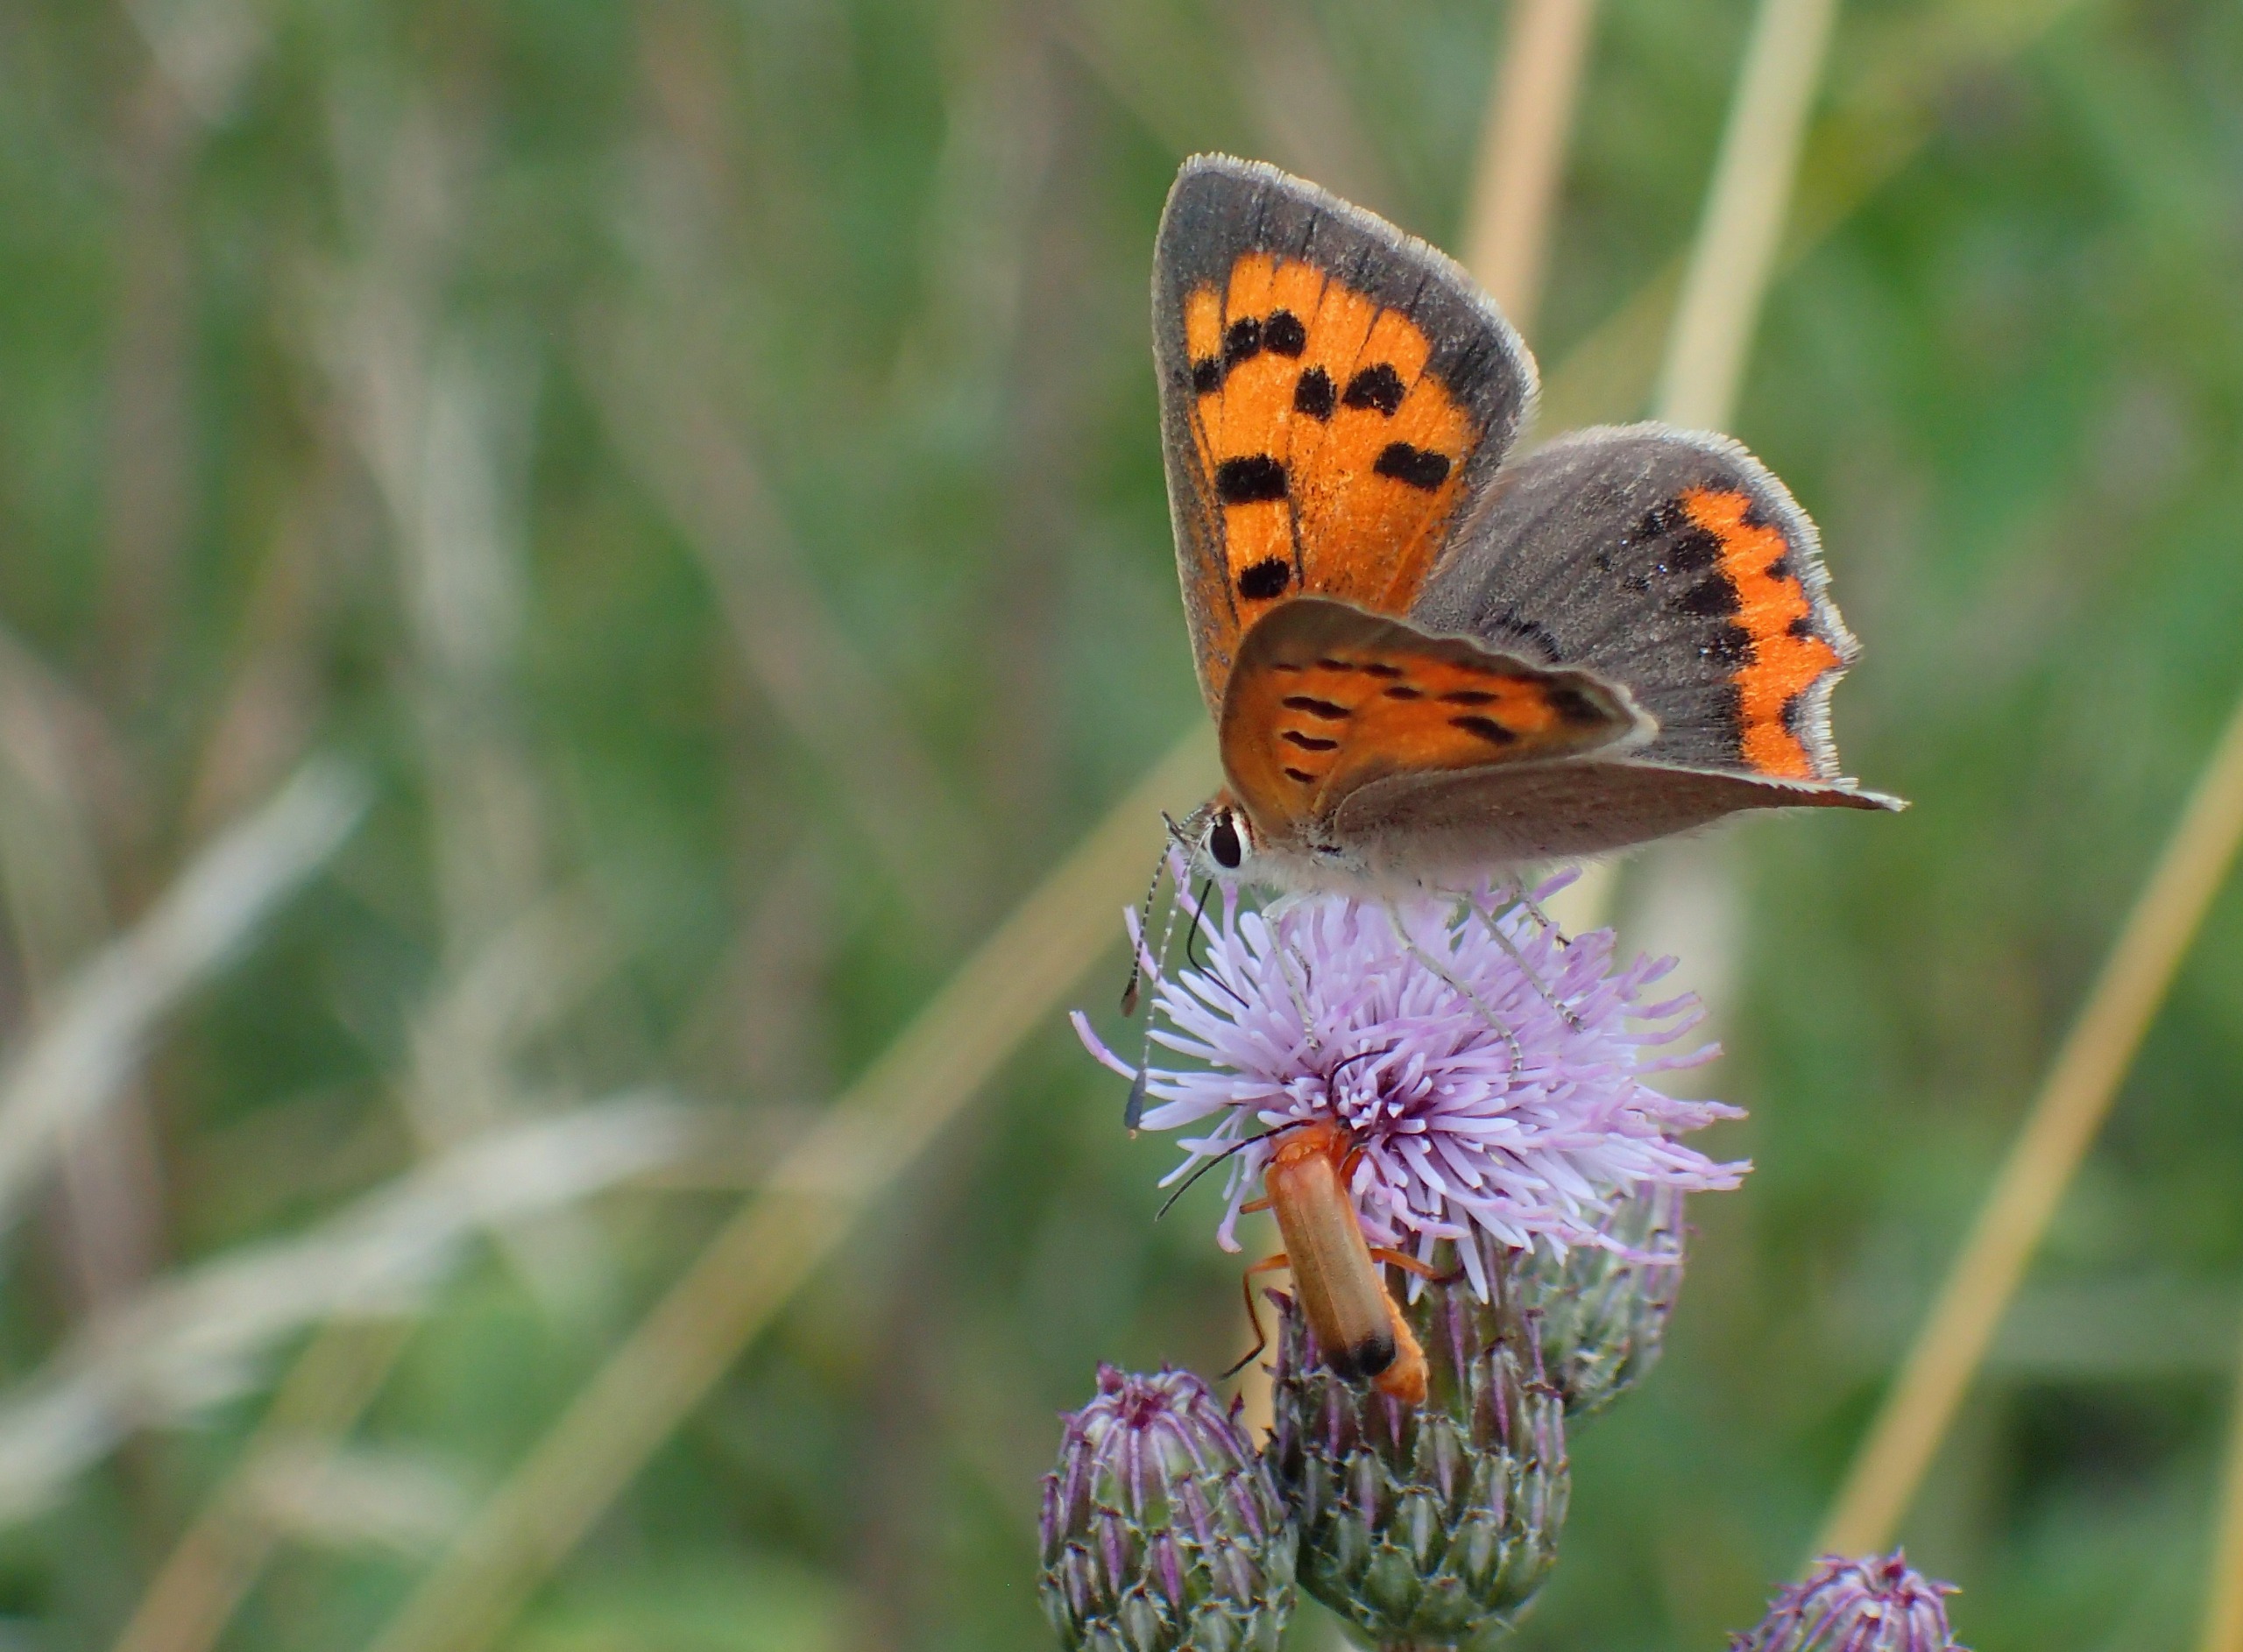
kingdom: Animalia
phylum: Arthropoda
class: Insecta
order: Lepidoptera
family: Lycaenidae
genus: Lycaena
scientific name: Lycaena phlaeas
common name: Lille ildfugl
